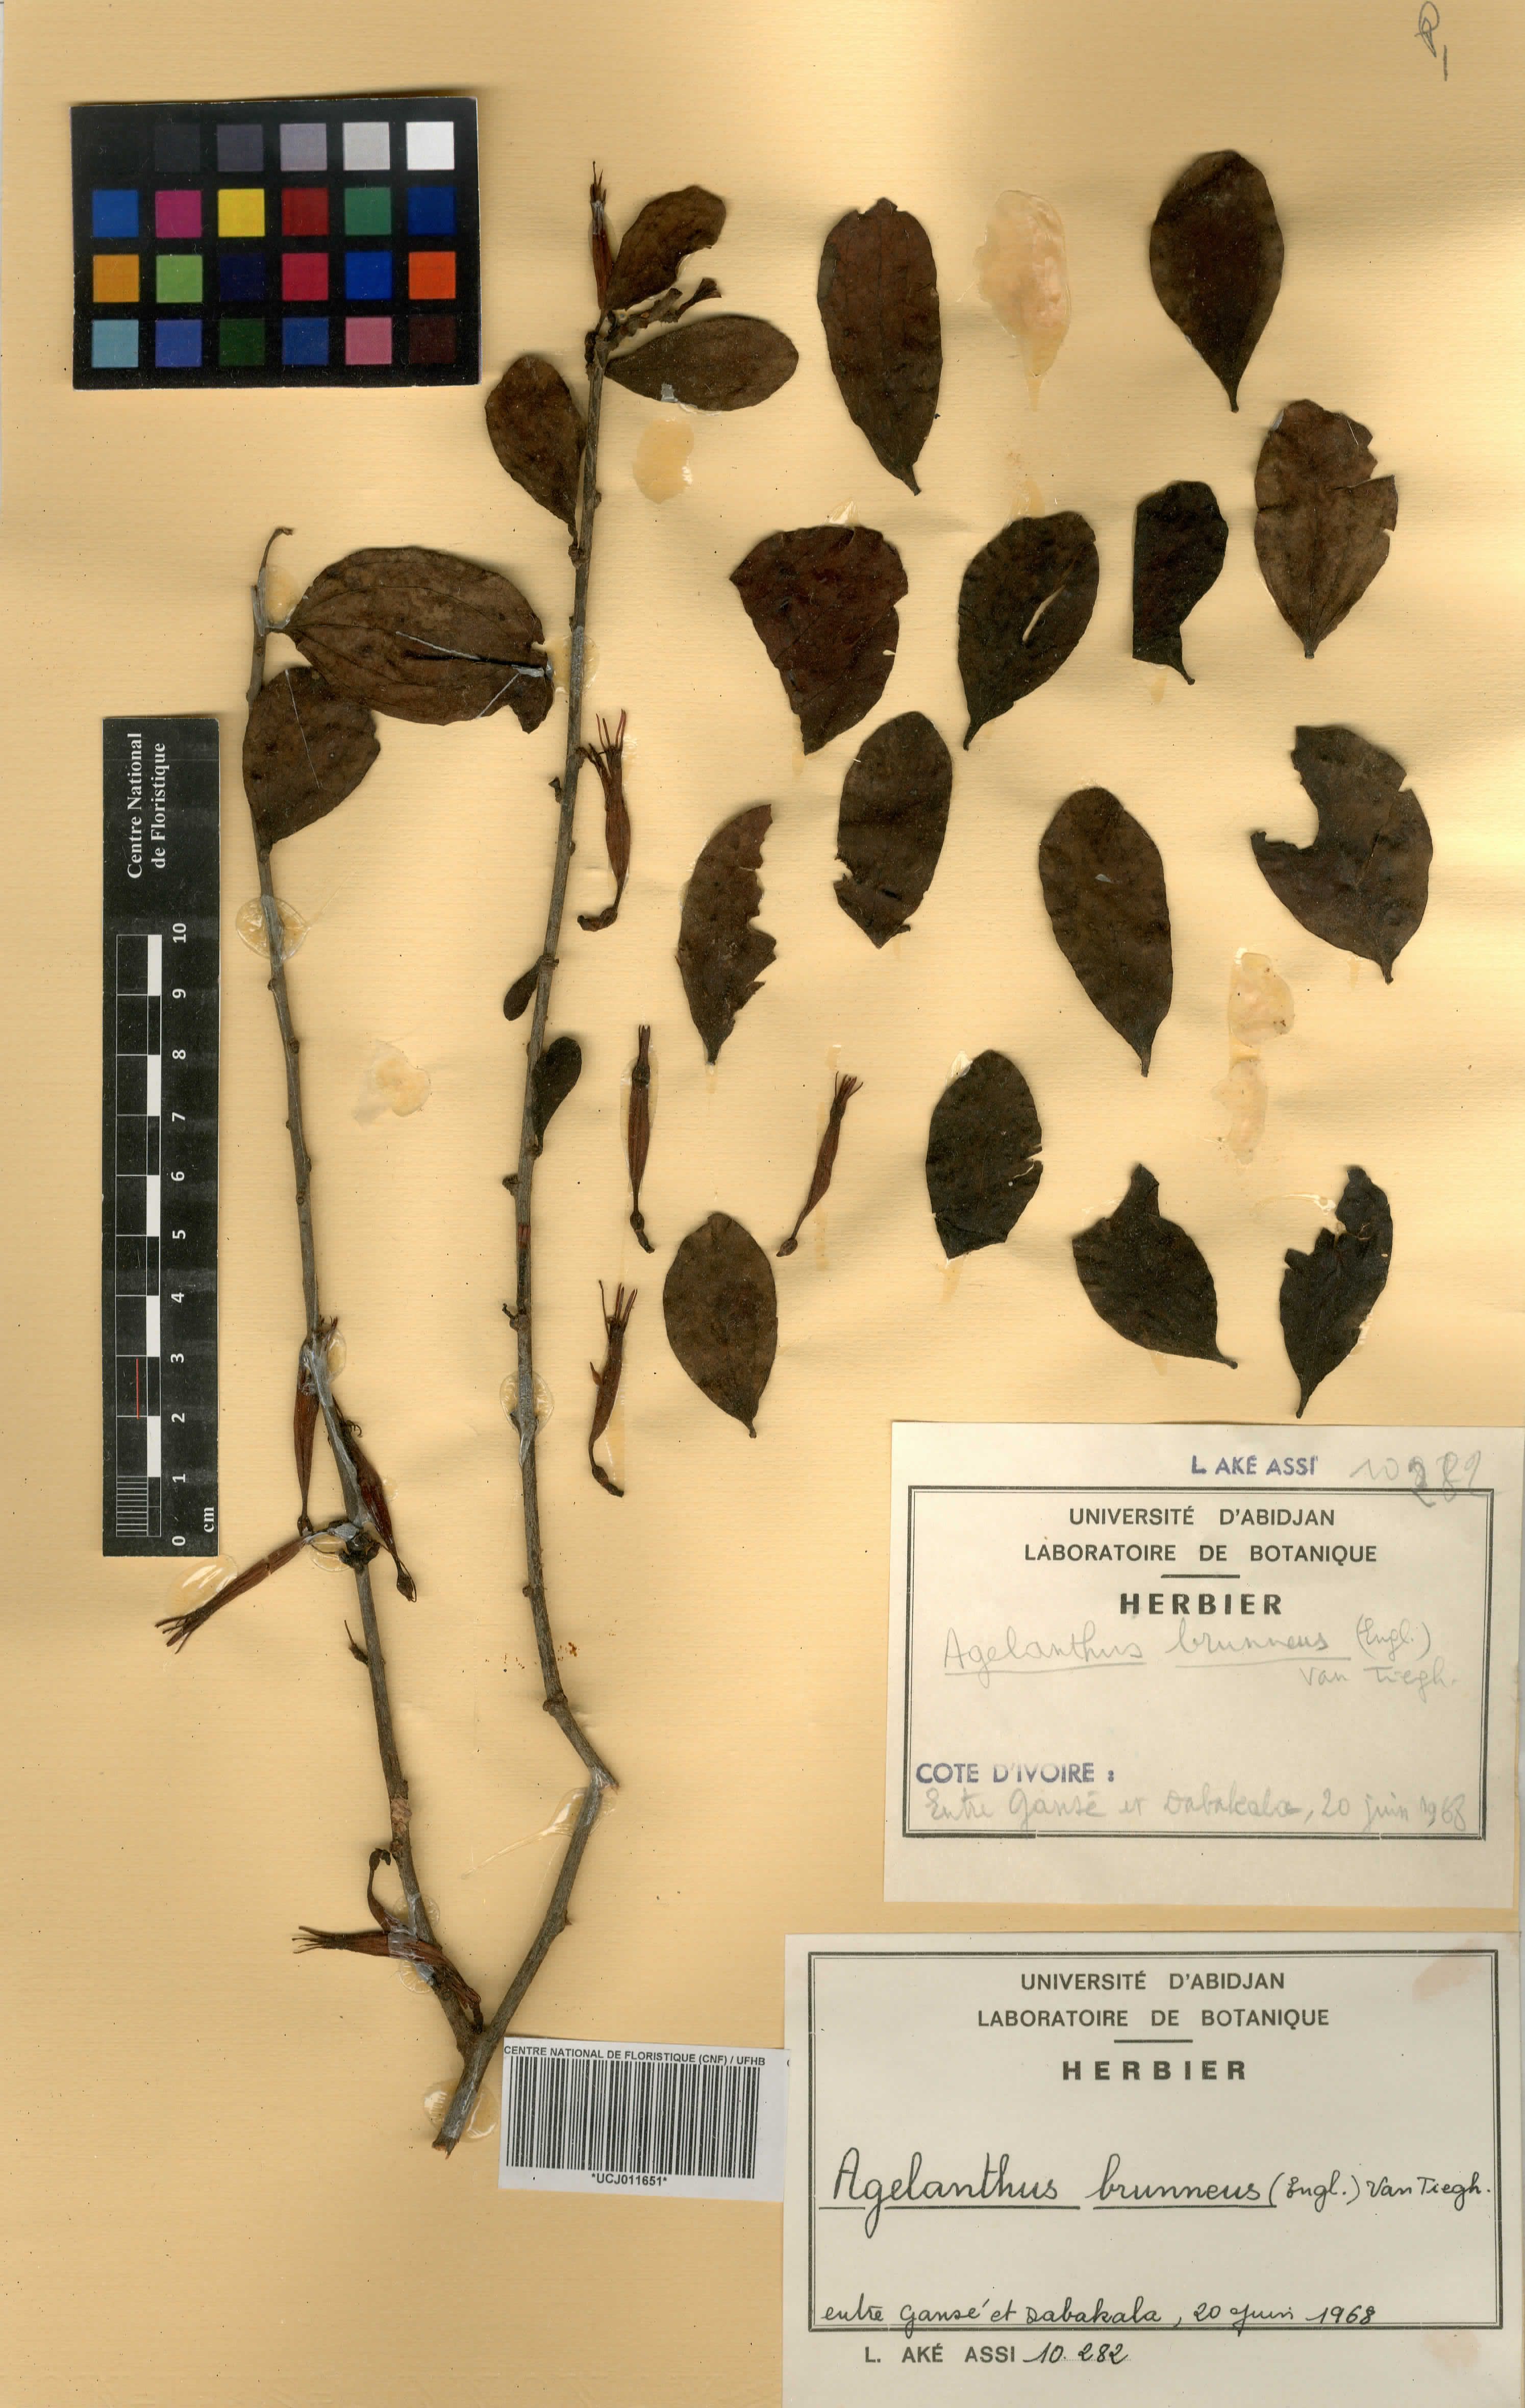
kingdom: Plantae
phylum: Tracheophyta
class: Magnoliopsida
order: Santalales
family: Loranthaceae
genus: Agelanthus
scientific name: Agelanthus brunneus
